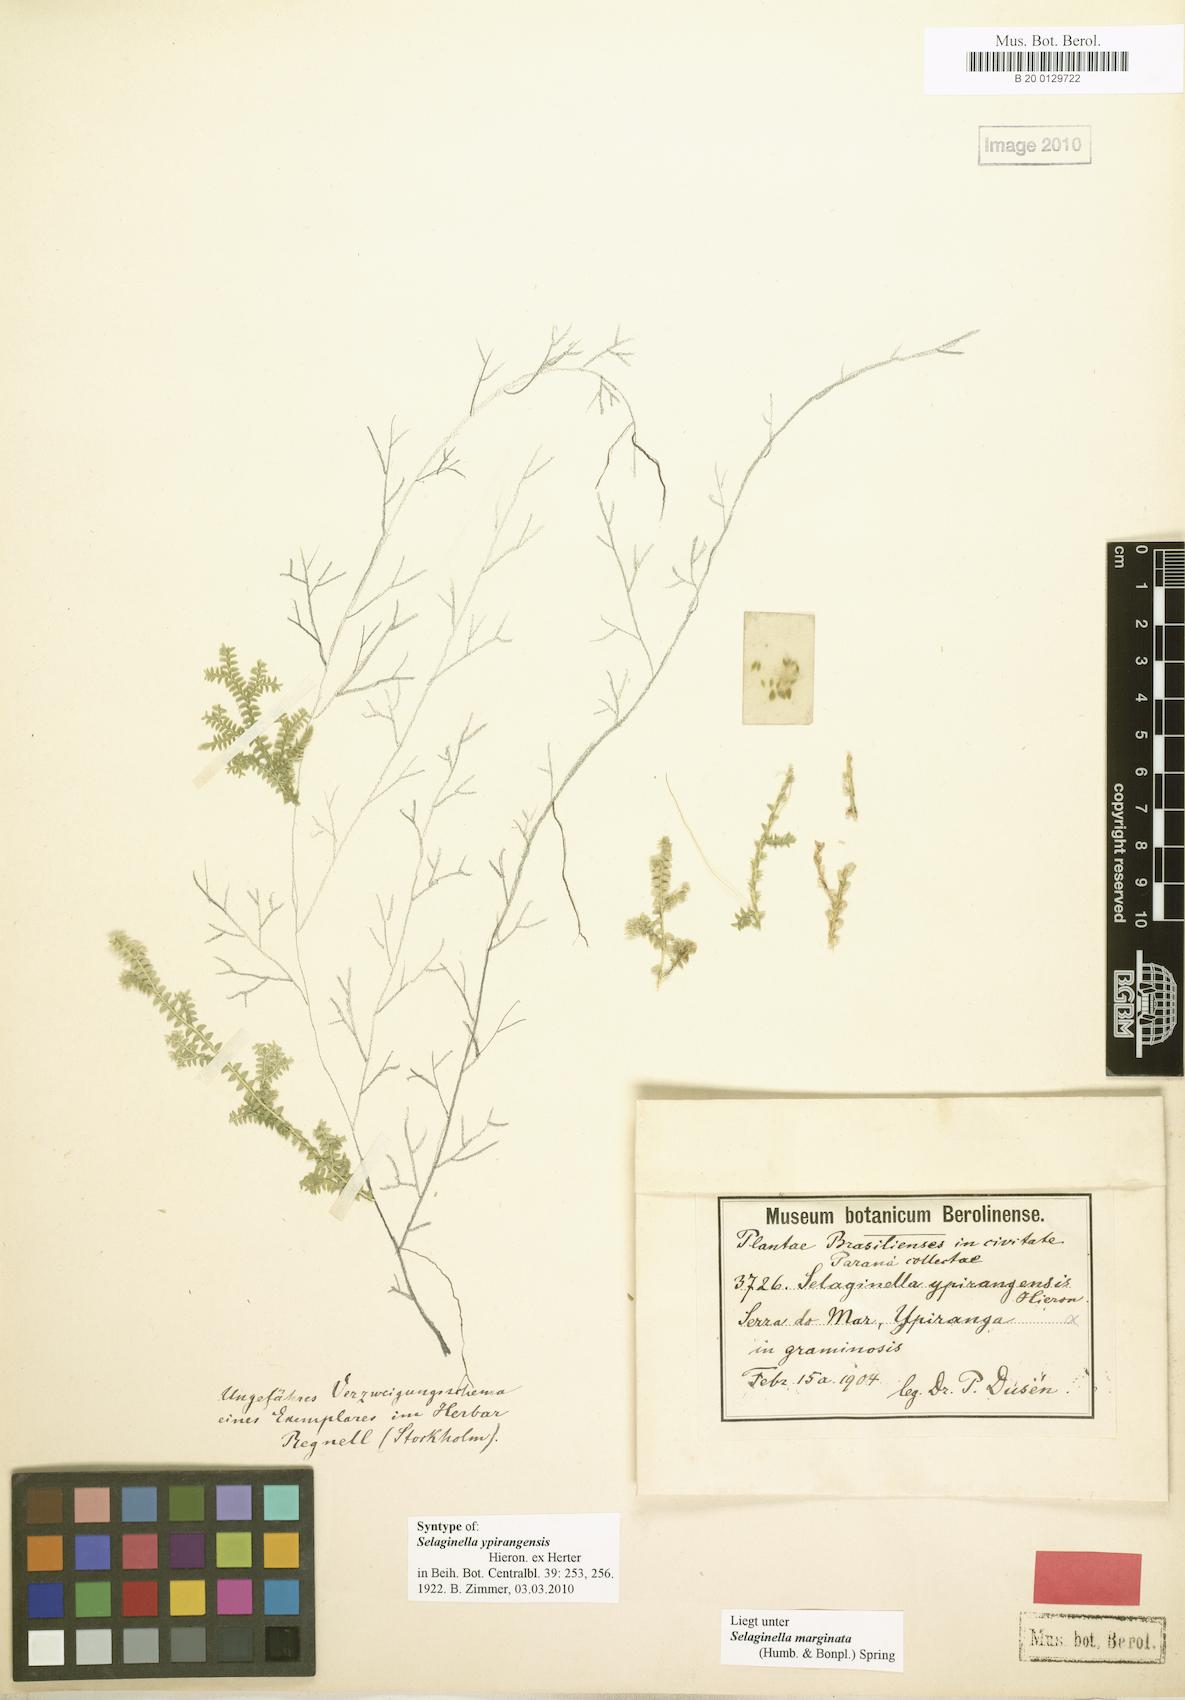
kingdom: Plantae
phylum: Tracheophyta
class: Lycopodiopsida
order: Selaginellales
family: Selaginellaceae
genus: Selaginella
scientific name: Selaginella marginata
